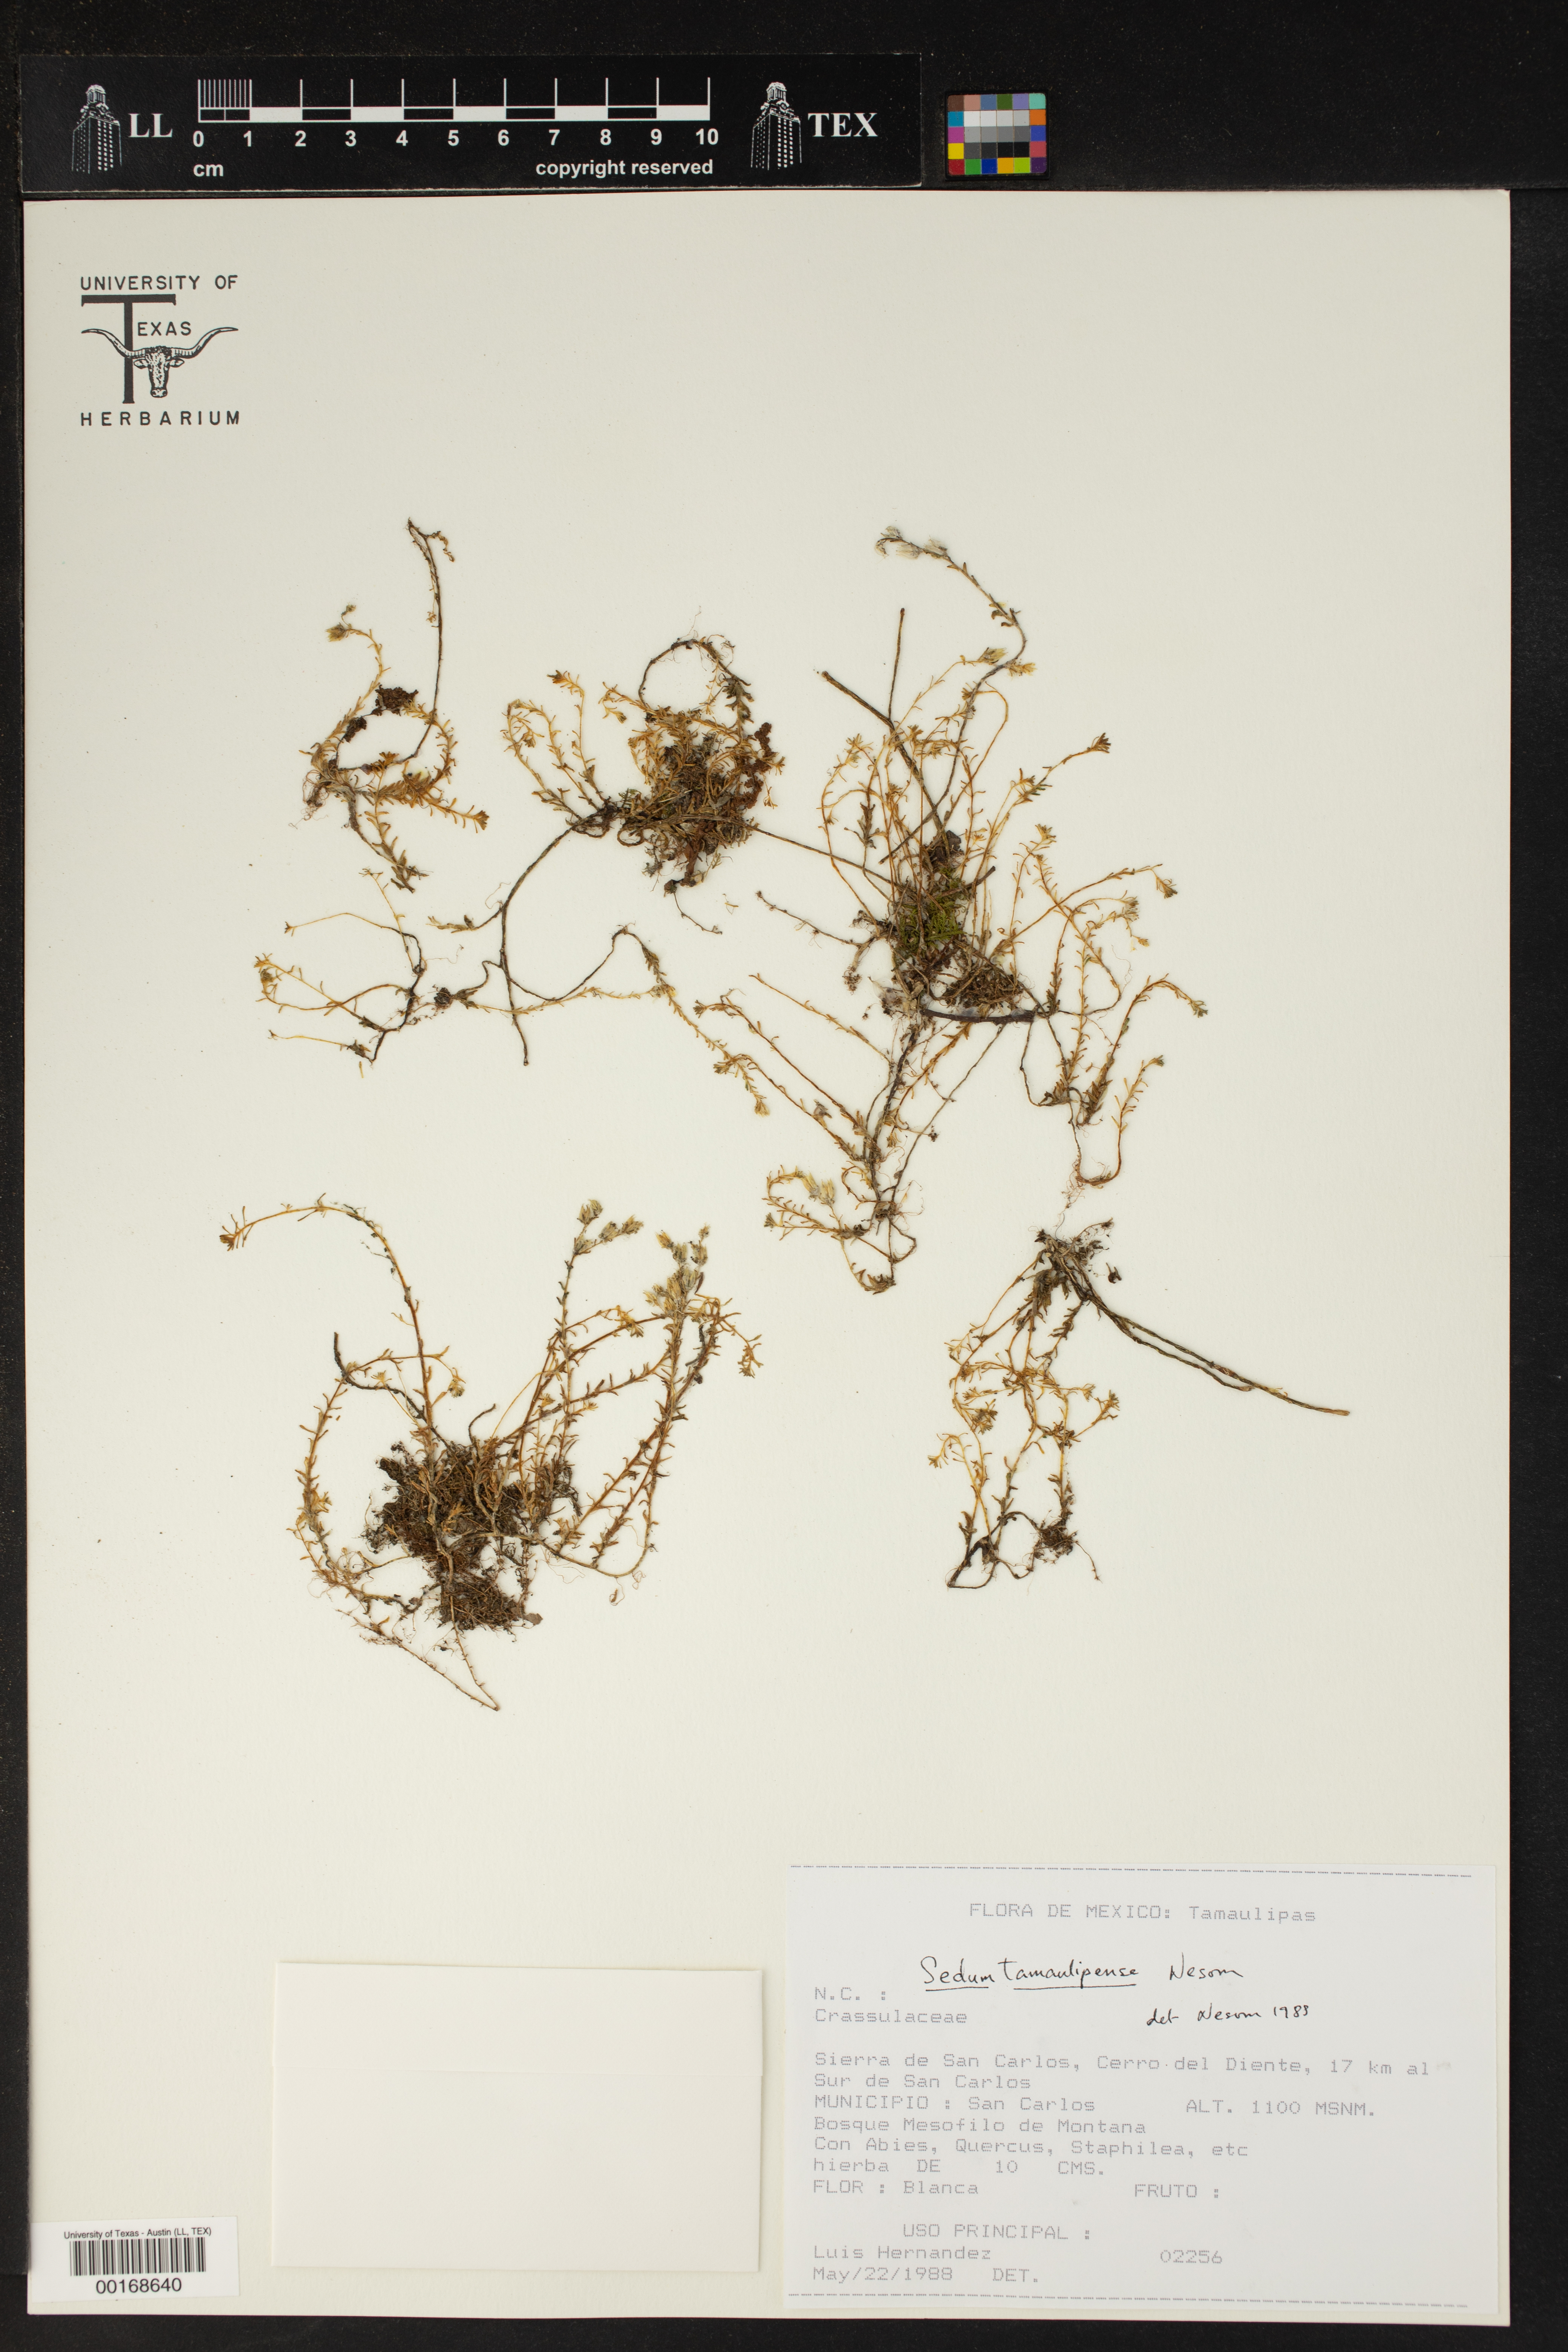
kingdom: Plantae
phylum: Tracheophyta
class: Magnoliopsida
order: Saxifragales
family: Crassulaceae
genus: Sedum
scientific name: Sedum tamaulipense
